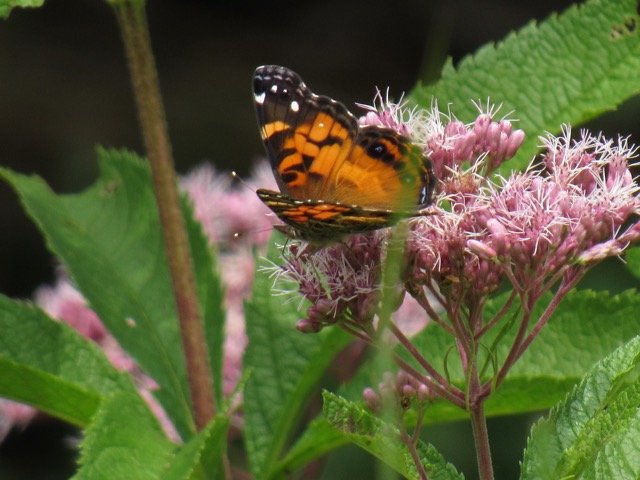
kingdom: Animalia
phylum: Arthropoda
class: Insecta
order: Lepidoptera
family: Nymphalidae
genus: Vanessa
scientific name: Vanessa virginiensis
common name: American Lady
